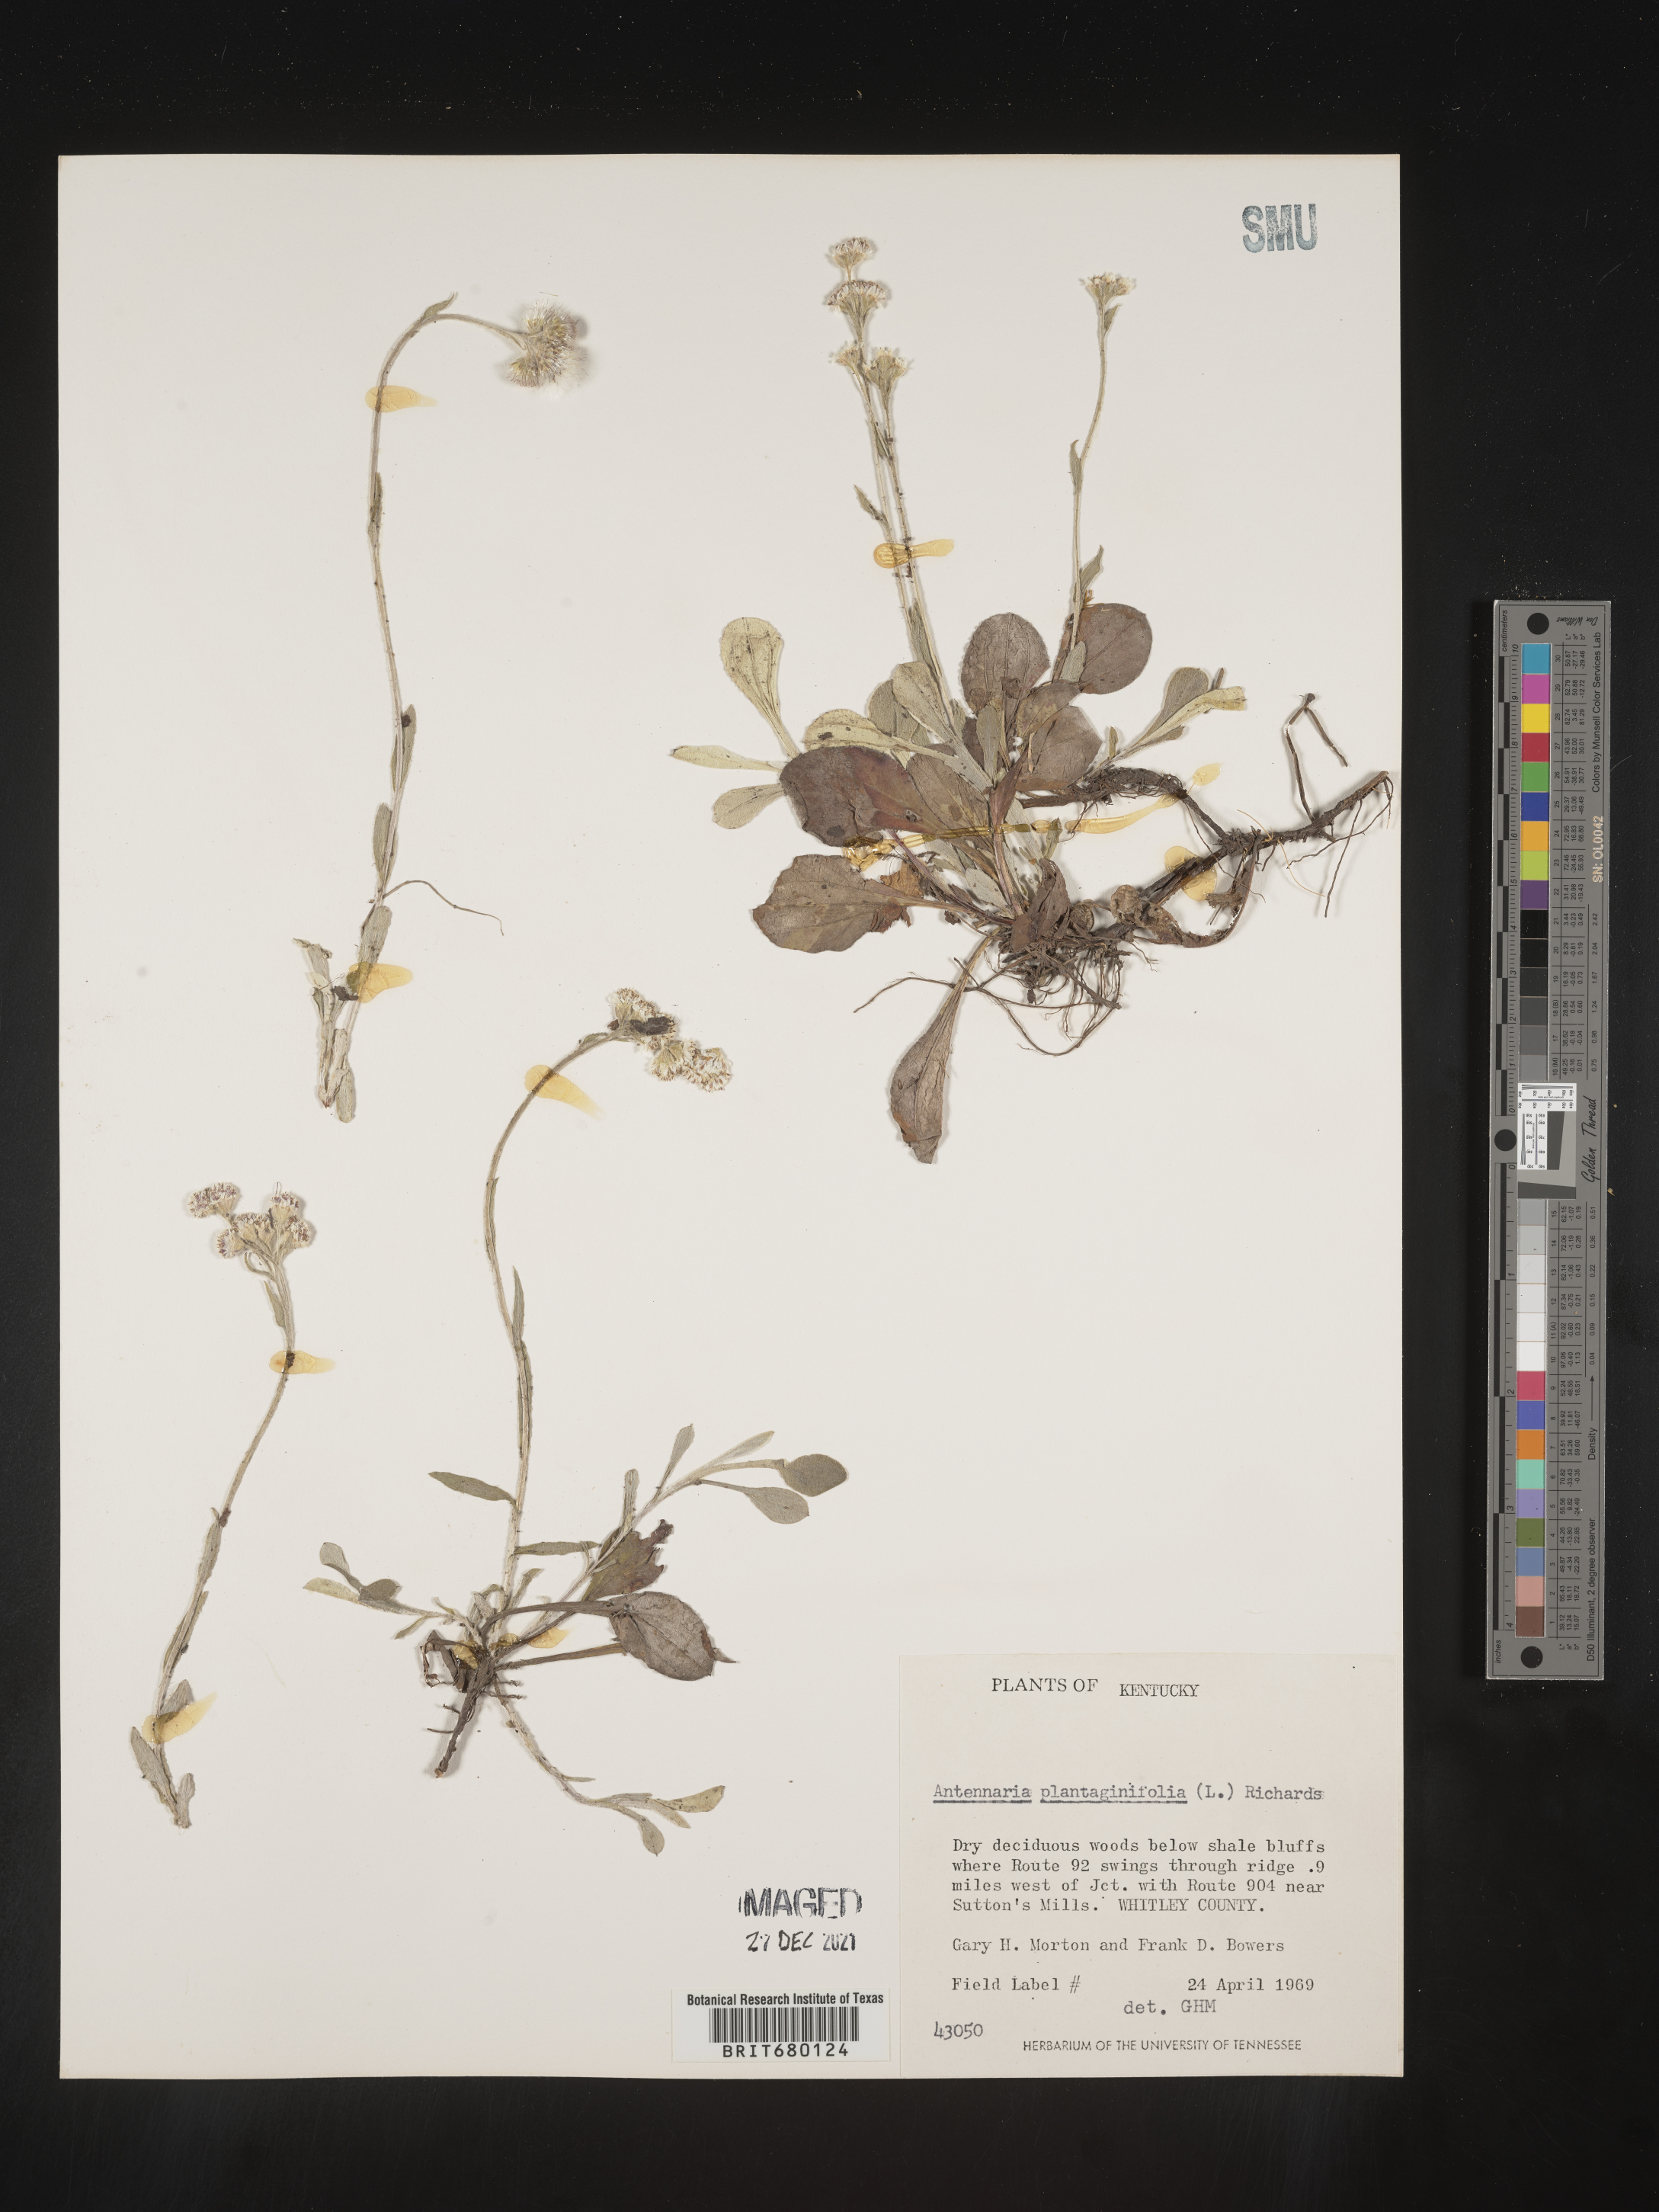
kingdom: Plantae
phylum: Tracheophyta
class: Magnoliopsida
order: Asterales
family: Asteraceae
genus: Antennaria
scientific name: Antennaria plantaginifolia
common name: Plantain-leaved pussytoes
